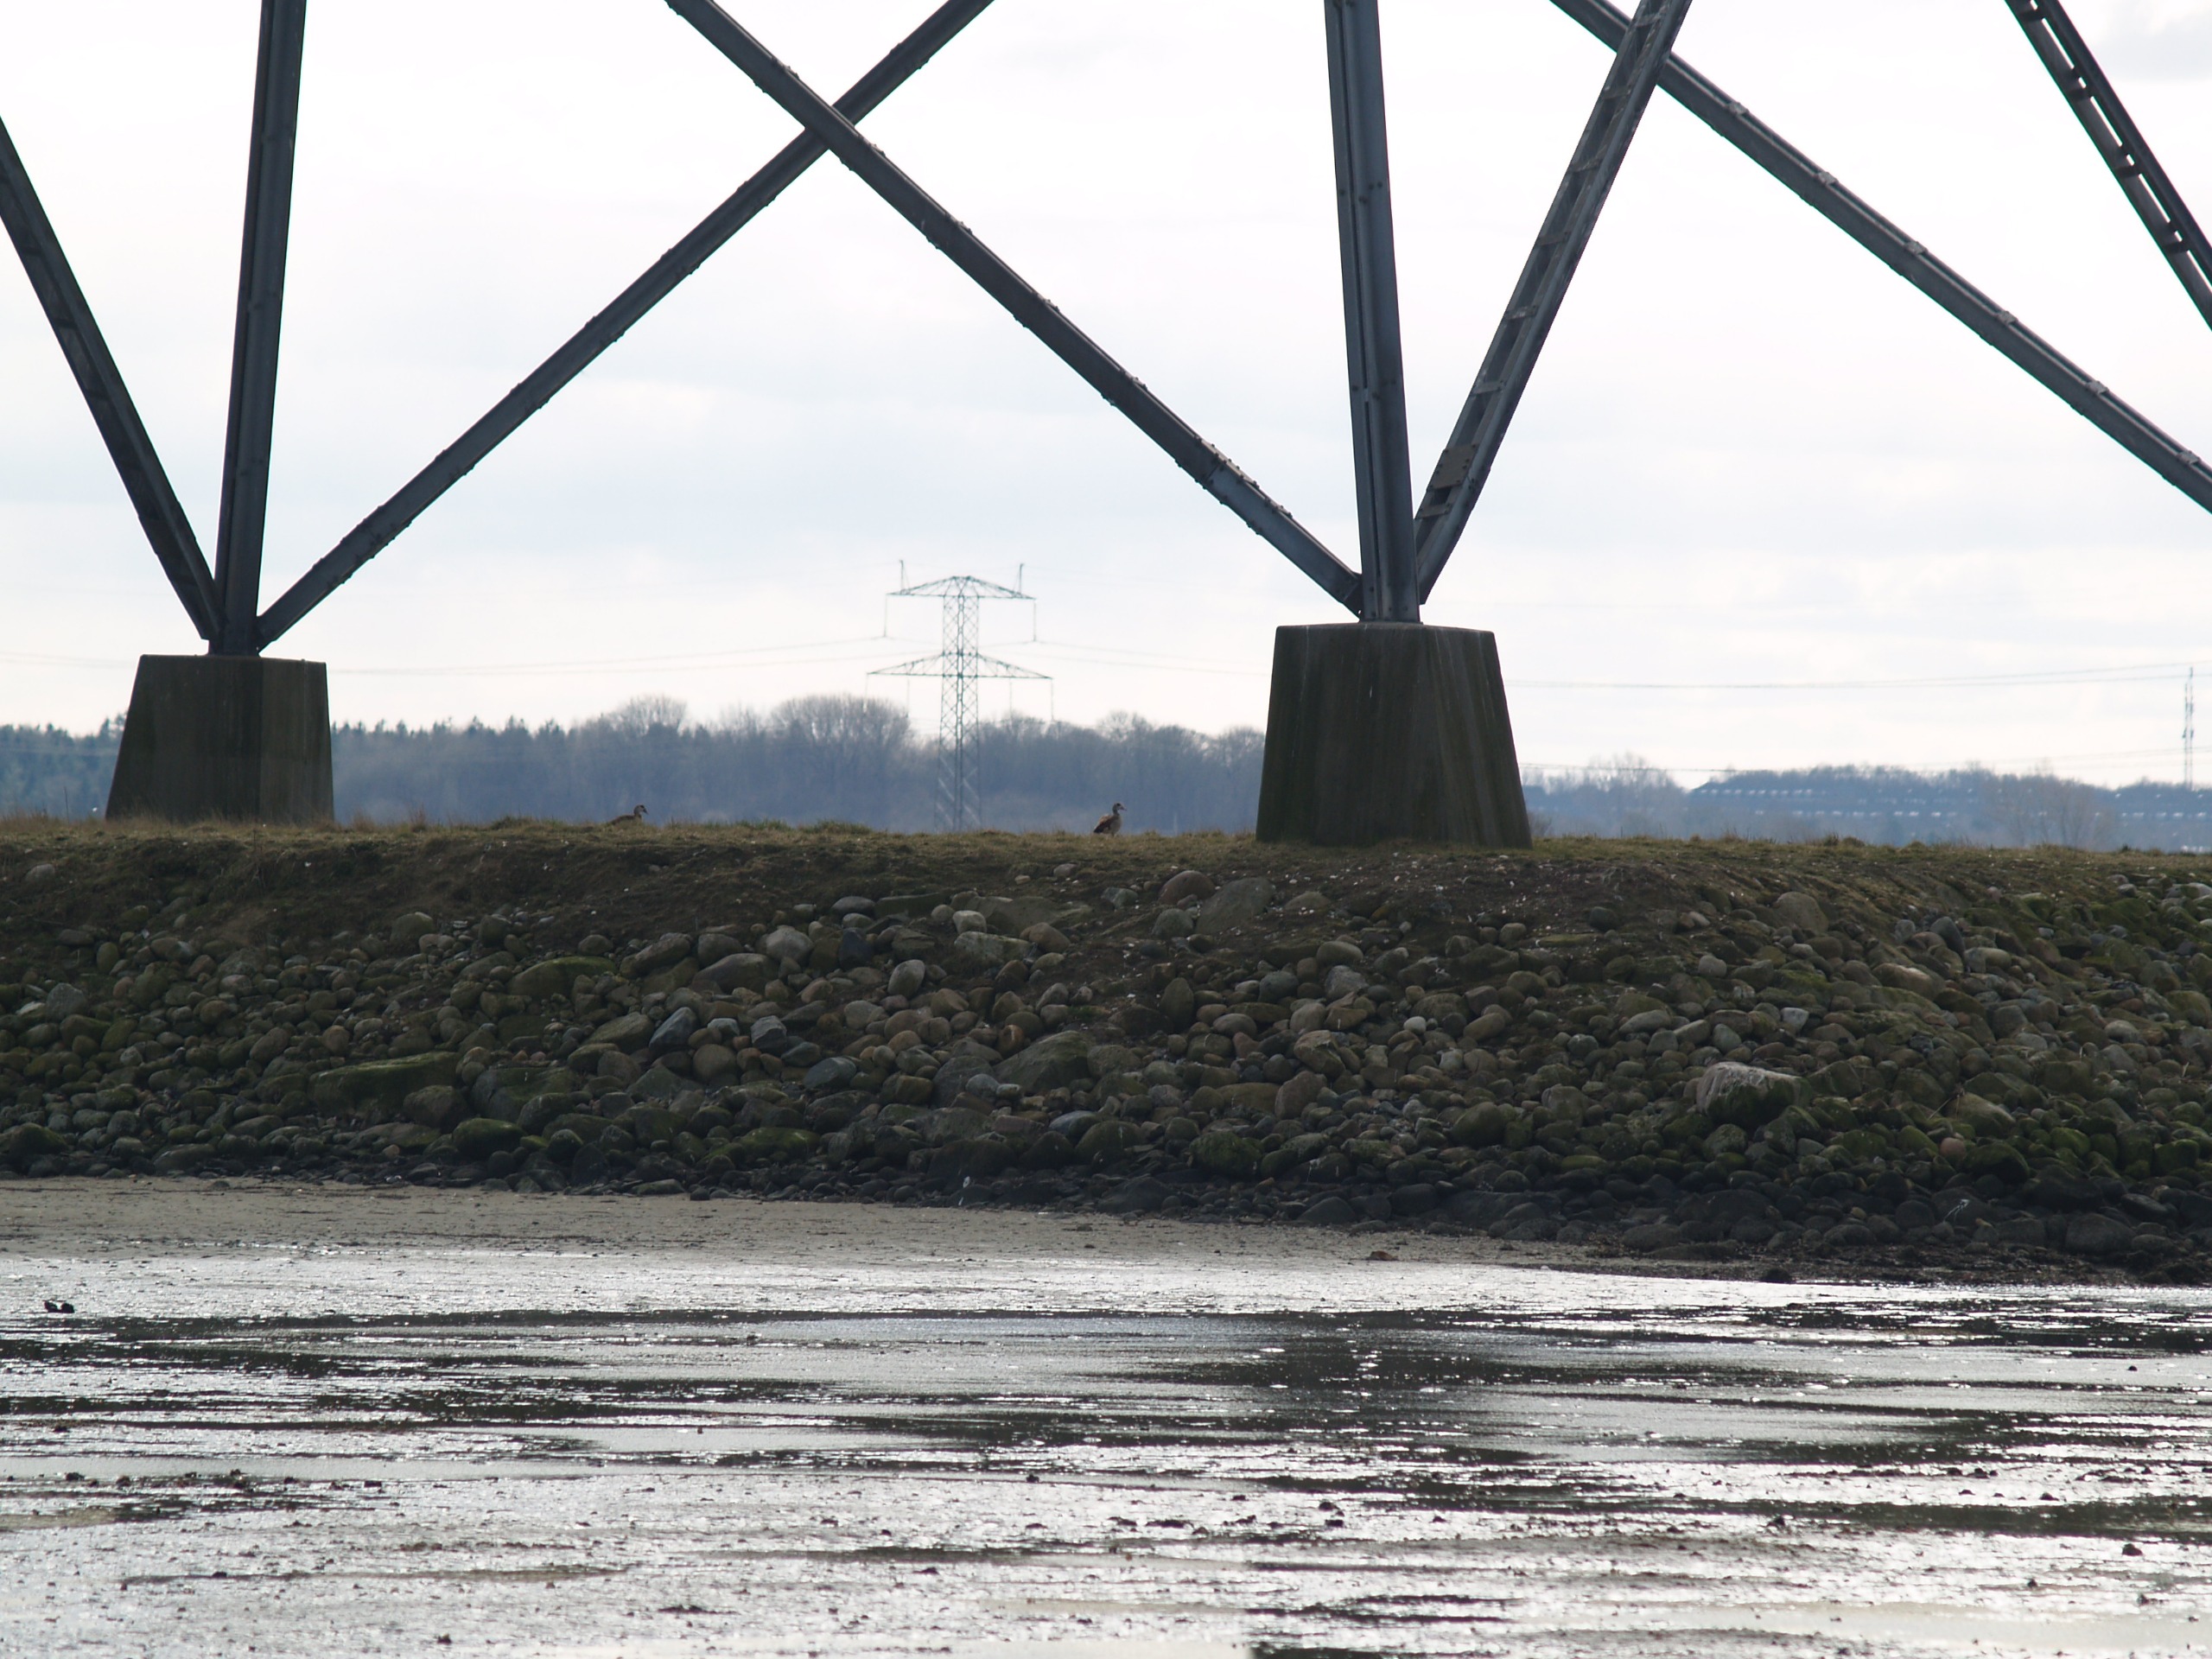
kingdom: Animalia
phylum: Chordata
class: Aves
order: Anseriformes
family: Anatidae
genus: Alopochen
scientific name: Alopochen aegyptiaca
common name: Nilgås
